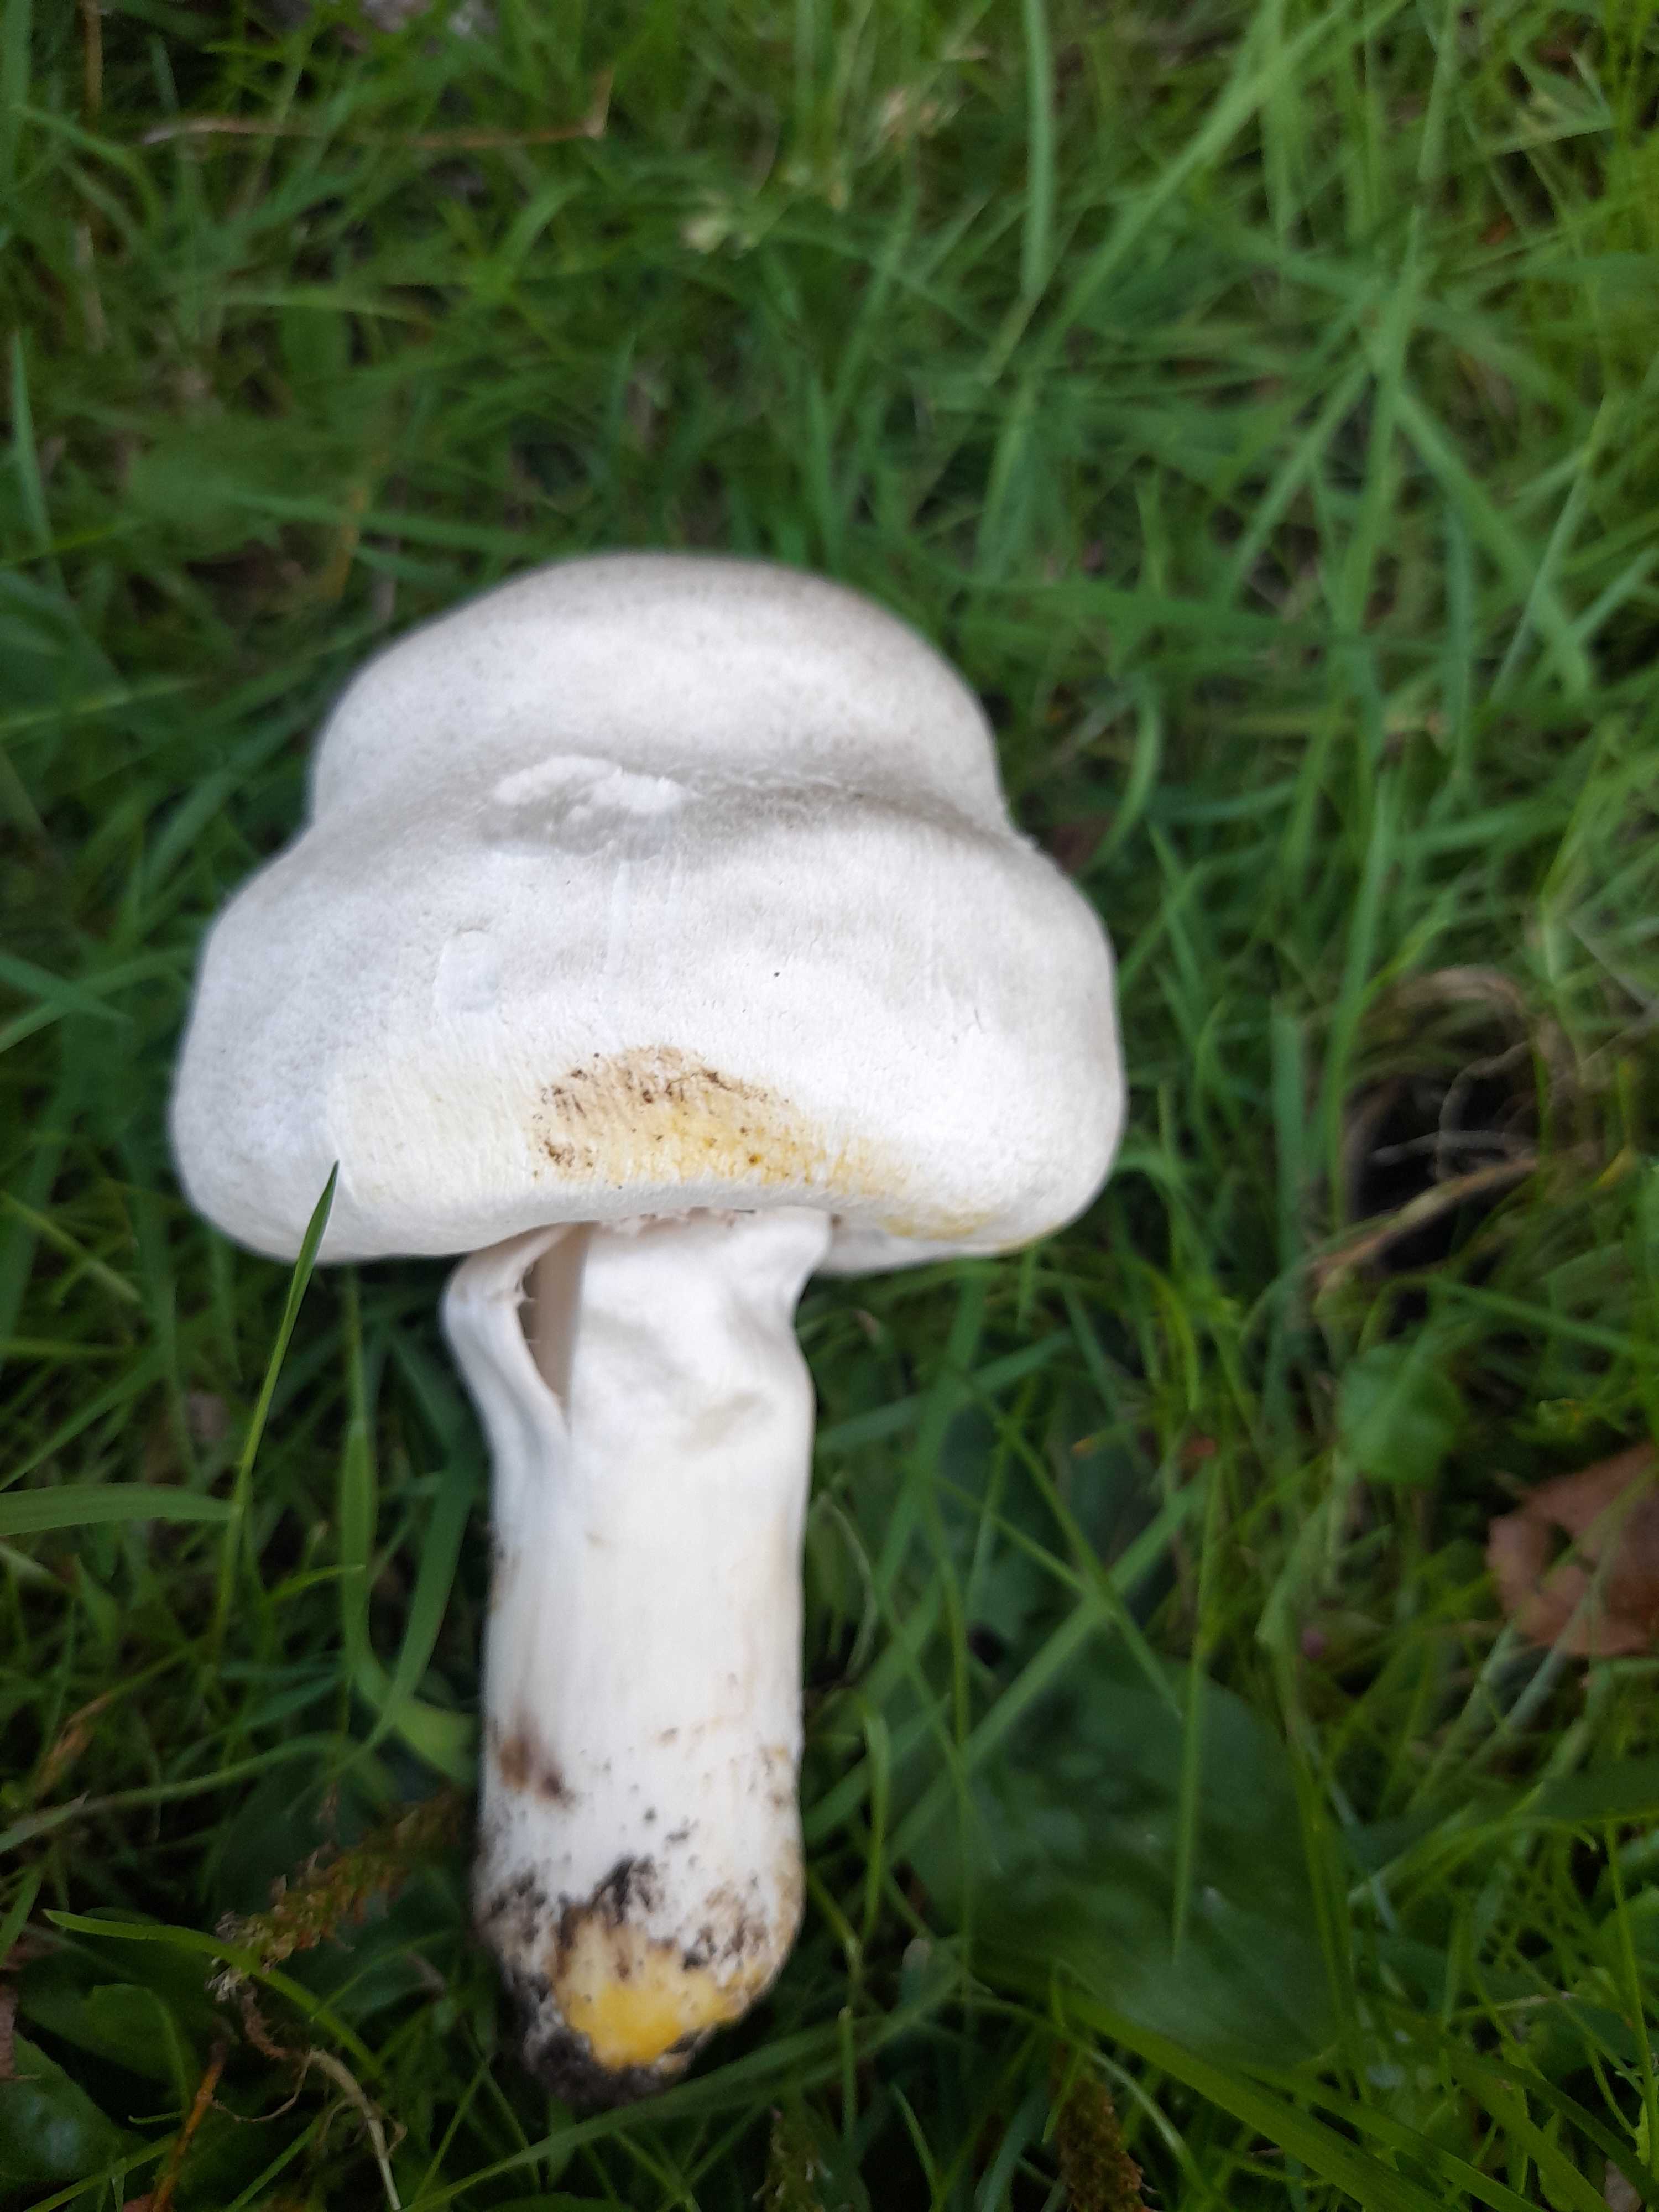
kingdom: Fungi
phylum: Basidiomycota
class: Agaricomycetes
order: Agaricales
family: Agaricaceae
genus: Agaricus
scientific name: Agaricus xanthodermus
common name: karbol-champignon
